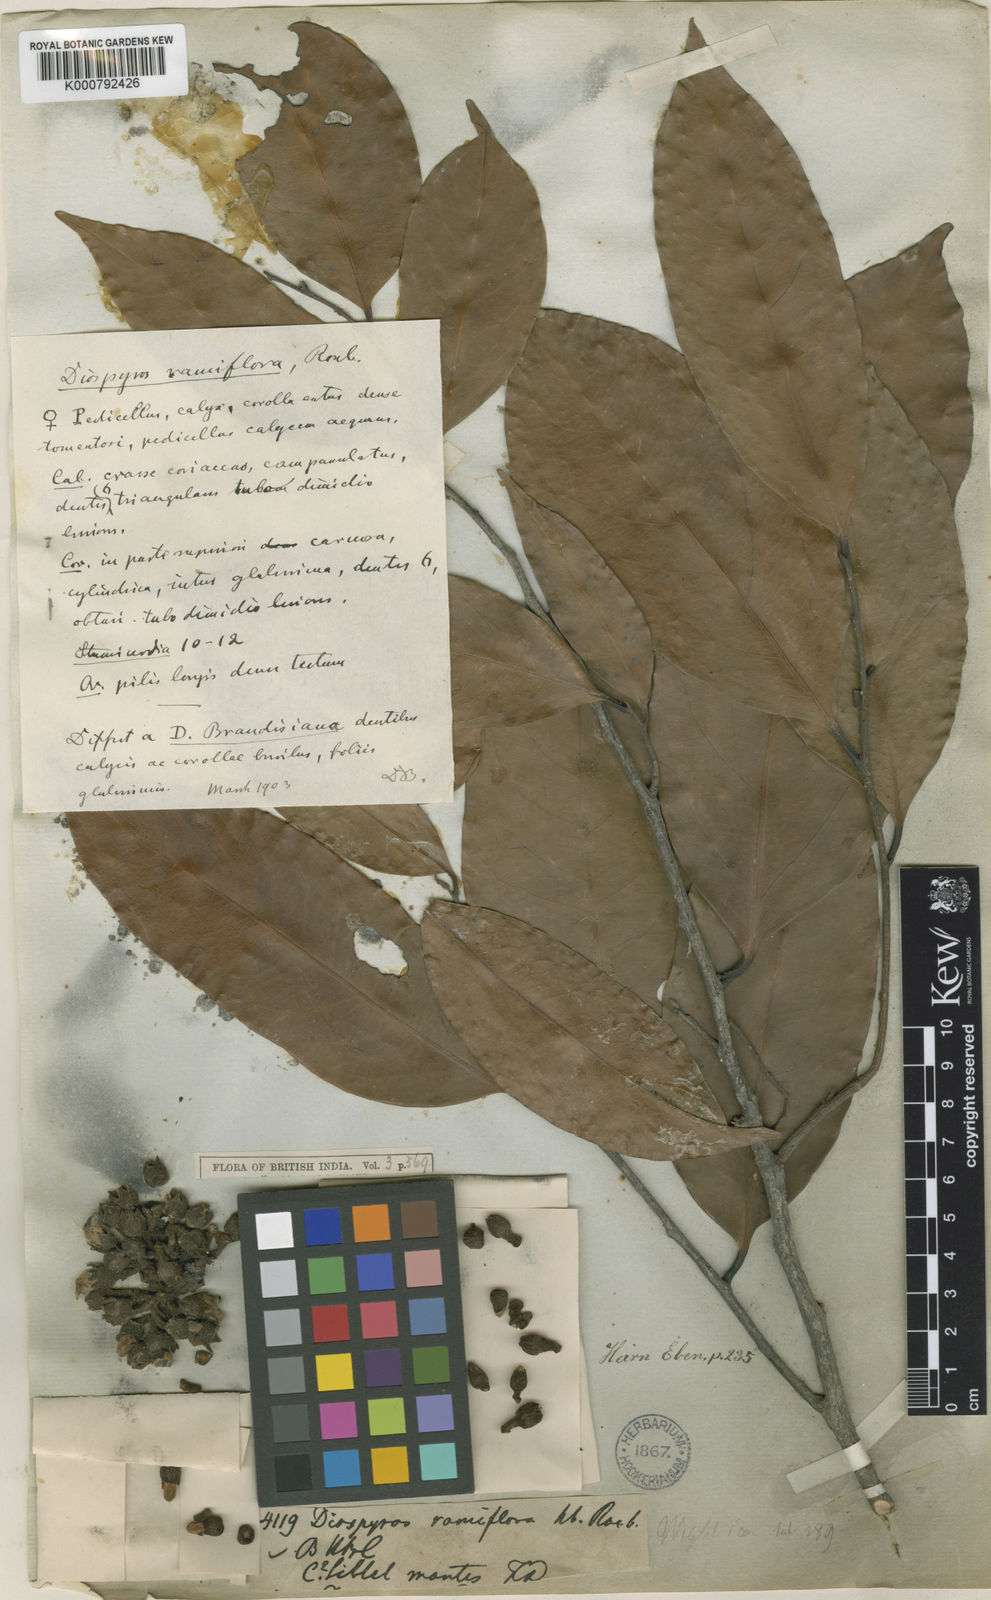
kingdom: Plantae
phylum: Tracheophyta
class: Magnoliopsida
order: Ericales
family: Ebenaceae
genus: Diospyros
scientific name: Diospyros ramiflora
